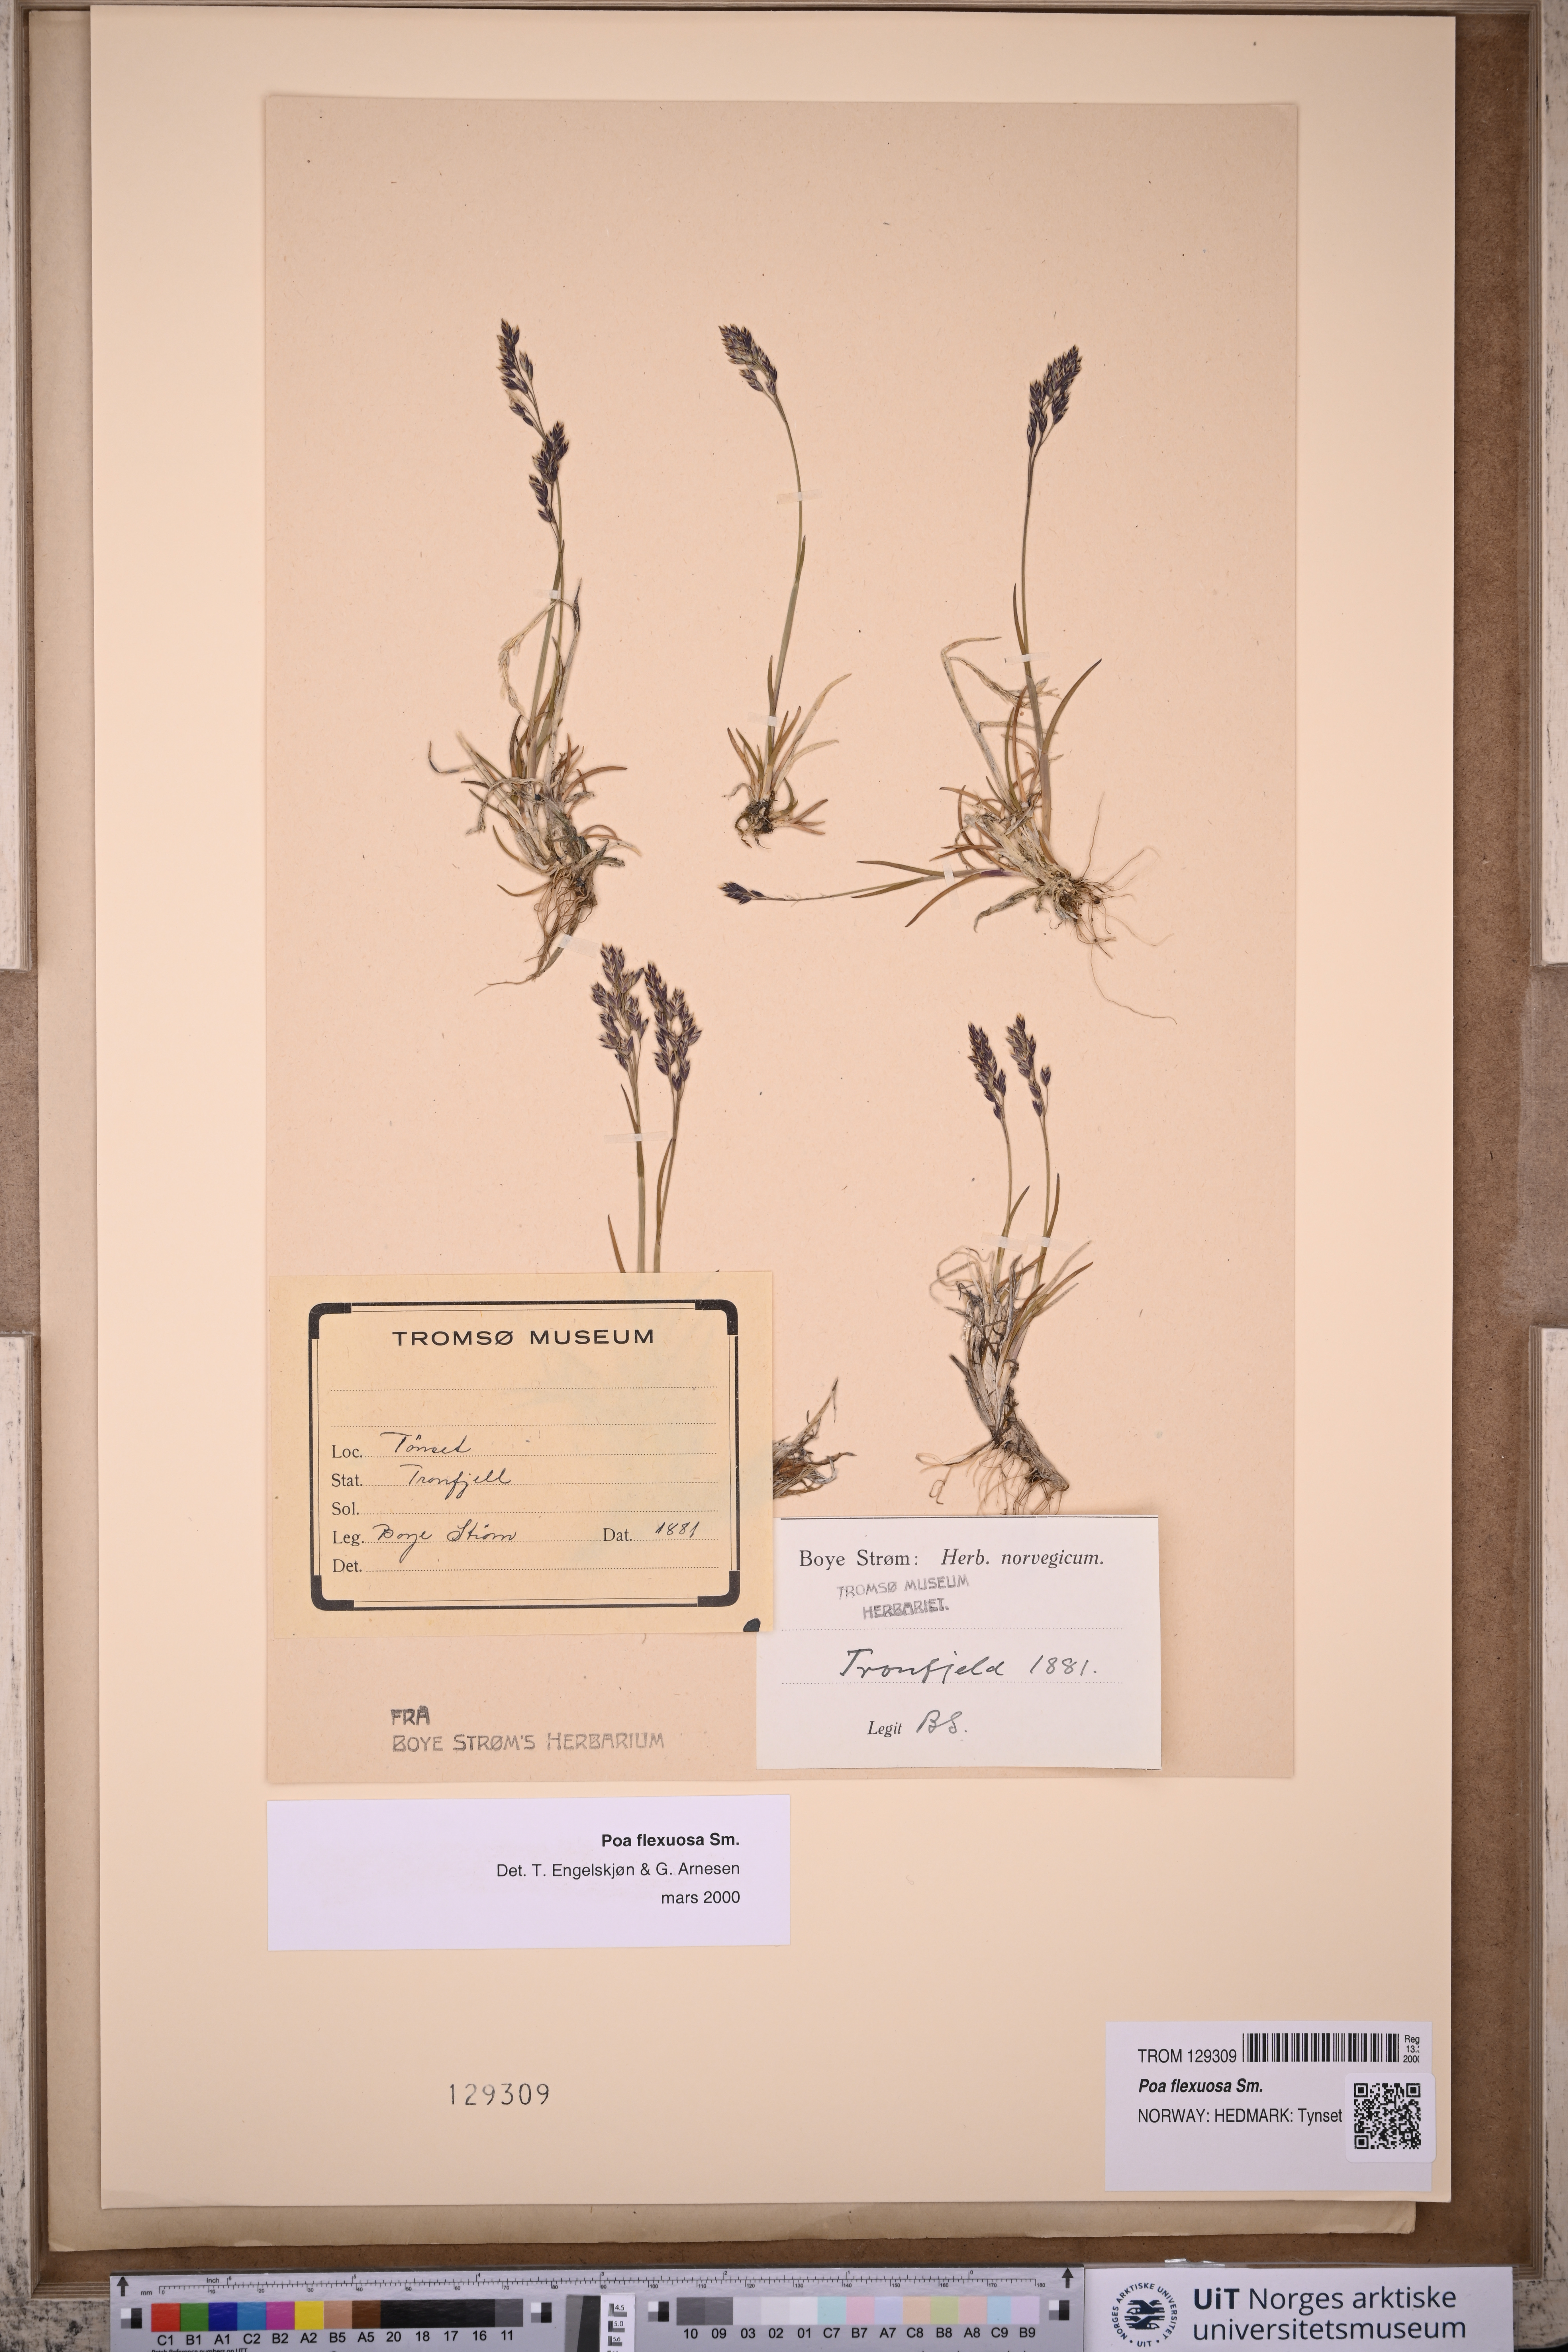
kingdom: Plantae
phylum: Tracheophyta
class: Liliopsida
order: Poales
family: Poaceae
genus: Poa
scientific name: Poa flexuosa
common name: Wavy meadow-grass
